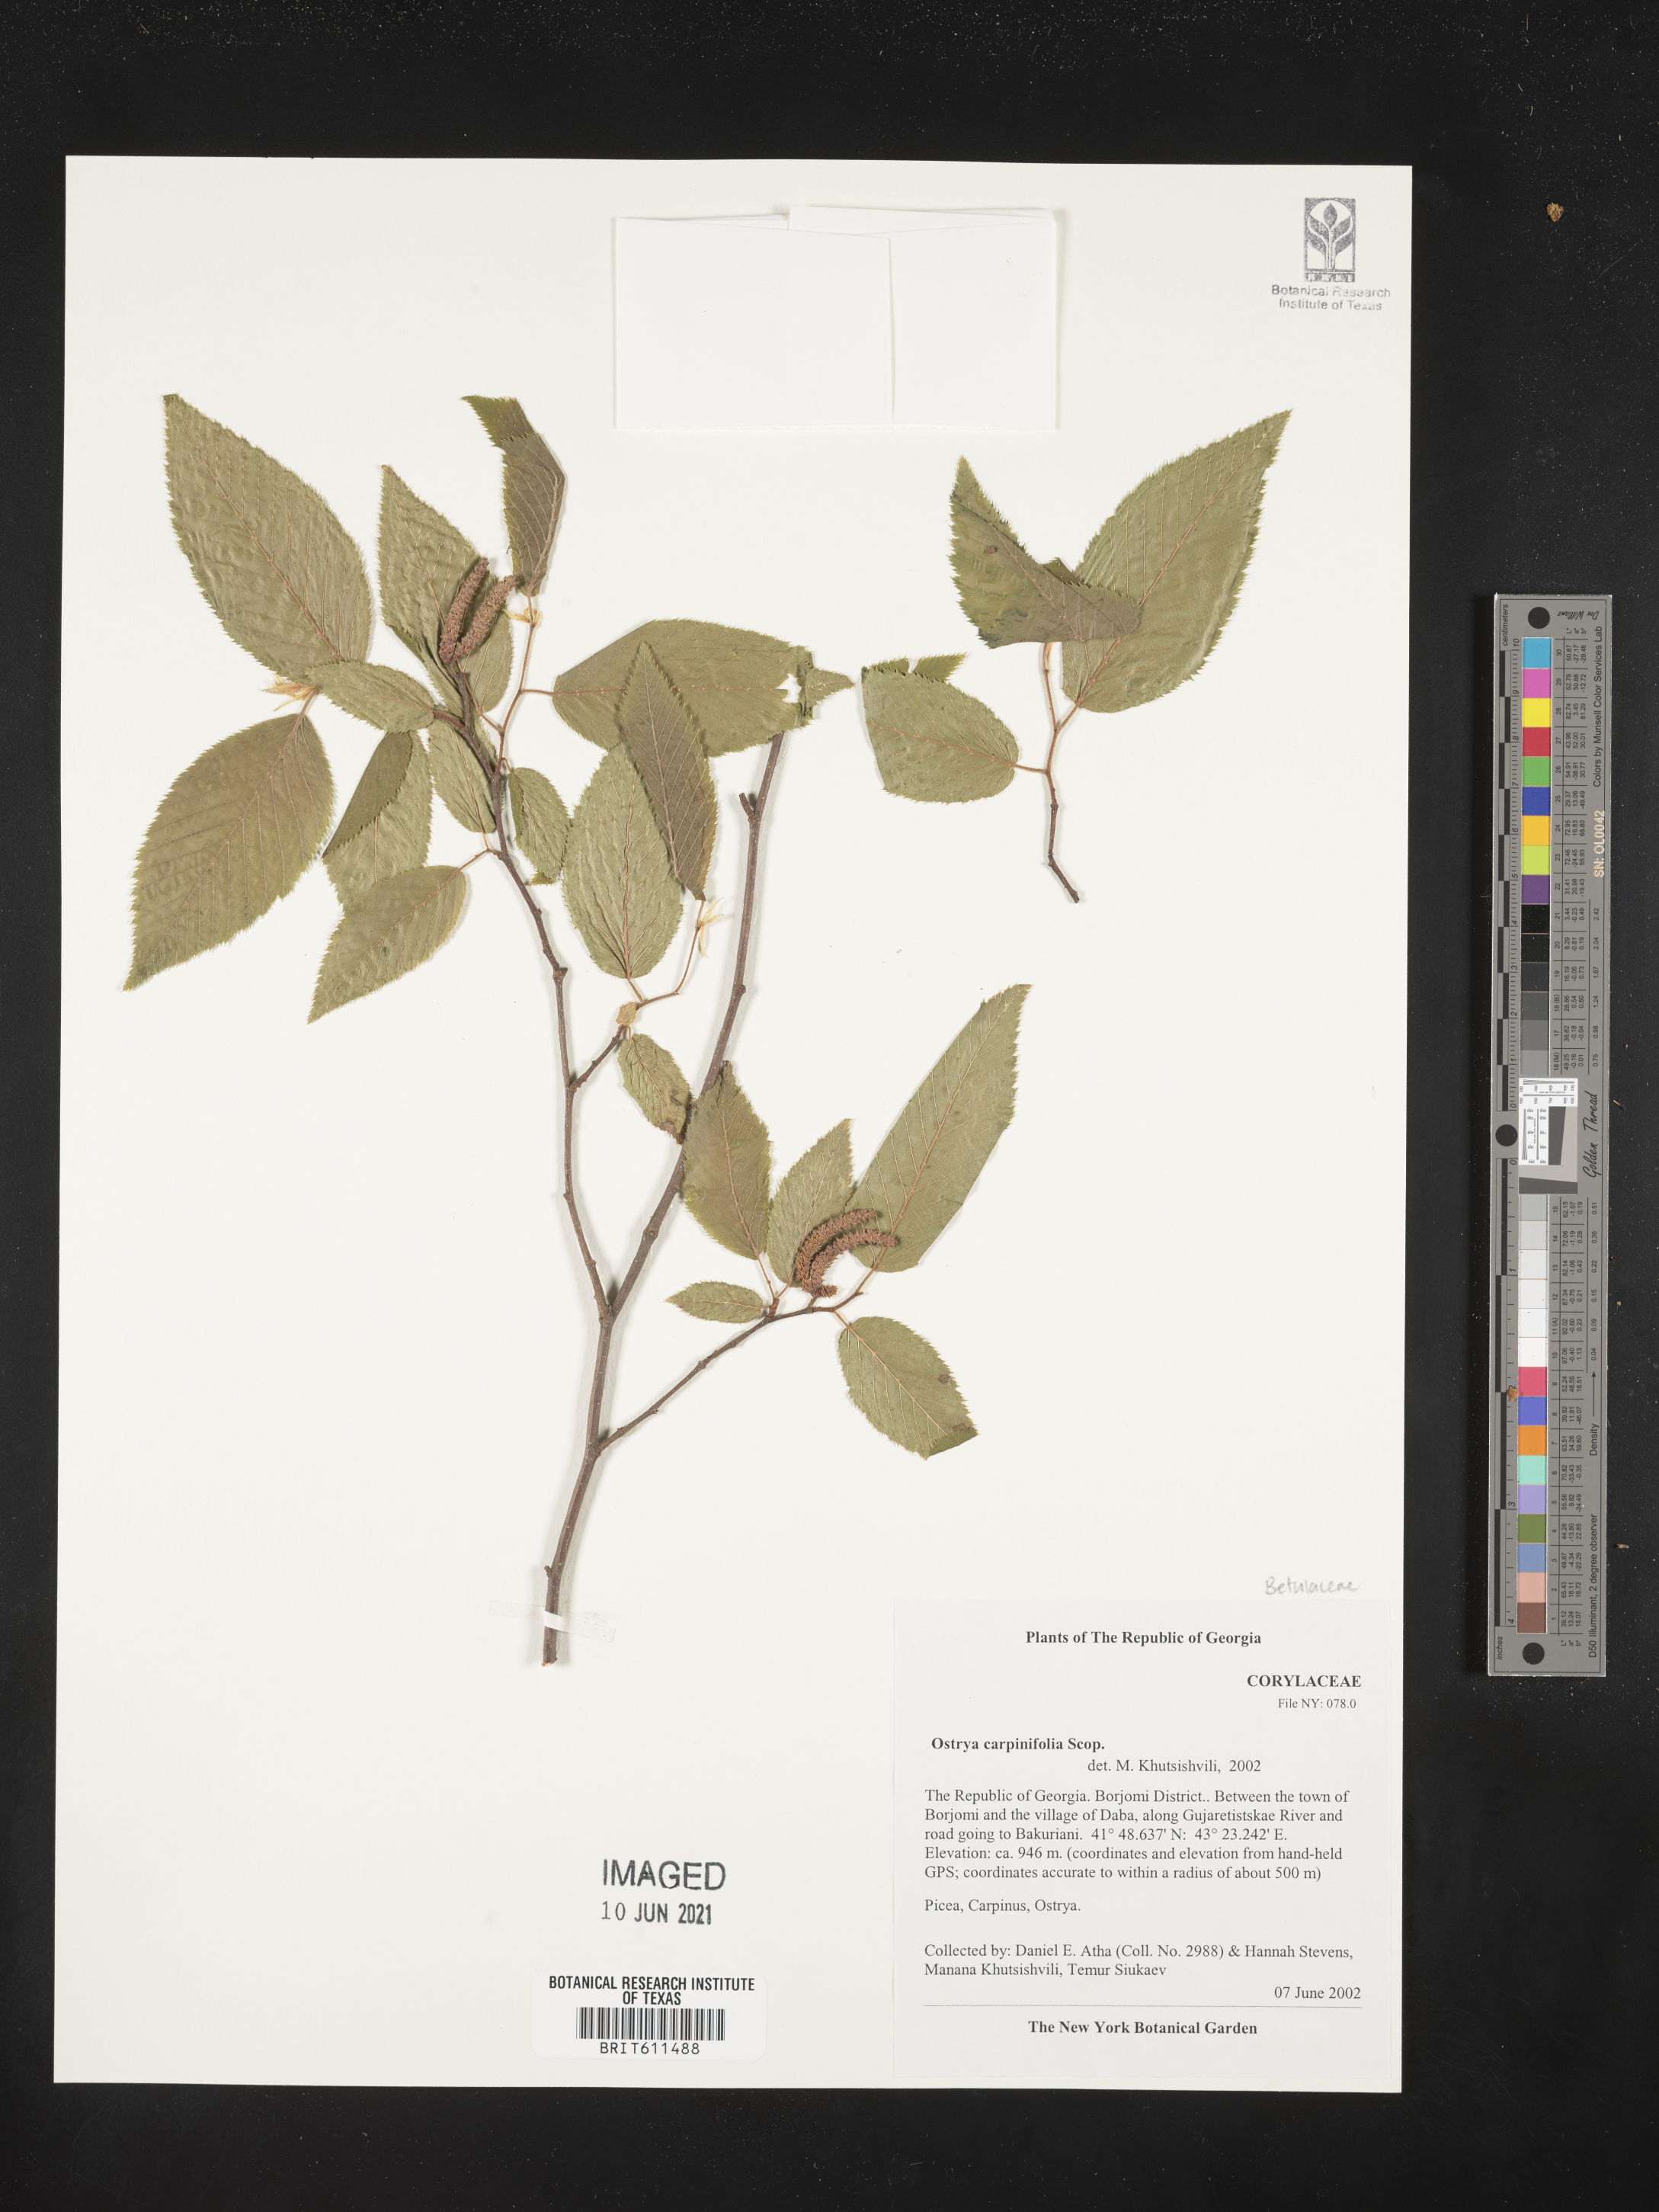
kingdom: Plantae
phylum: Tracheophyta
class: Magnoliopsida
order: Fagales
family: Betulaceae
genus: Ostrya
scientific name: Ostrya carpinifolia
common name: European hop-hornbeam
